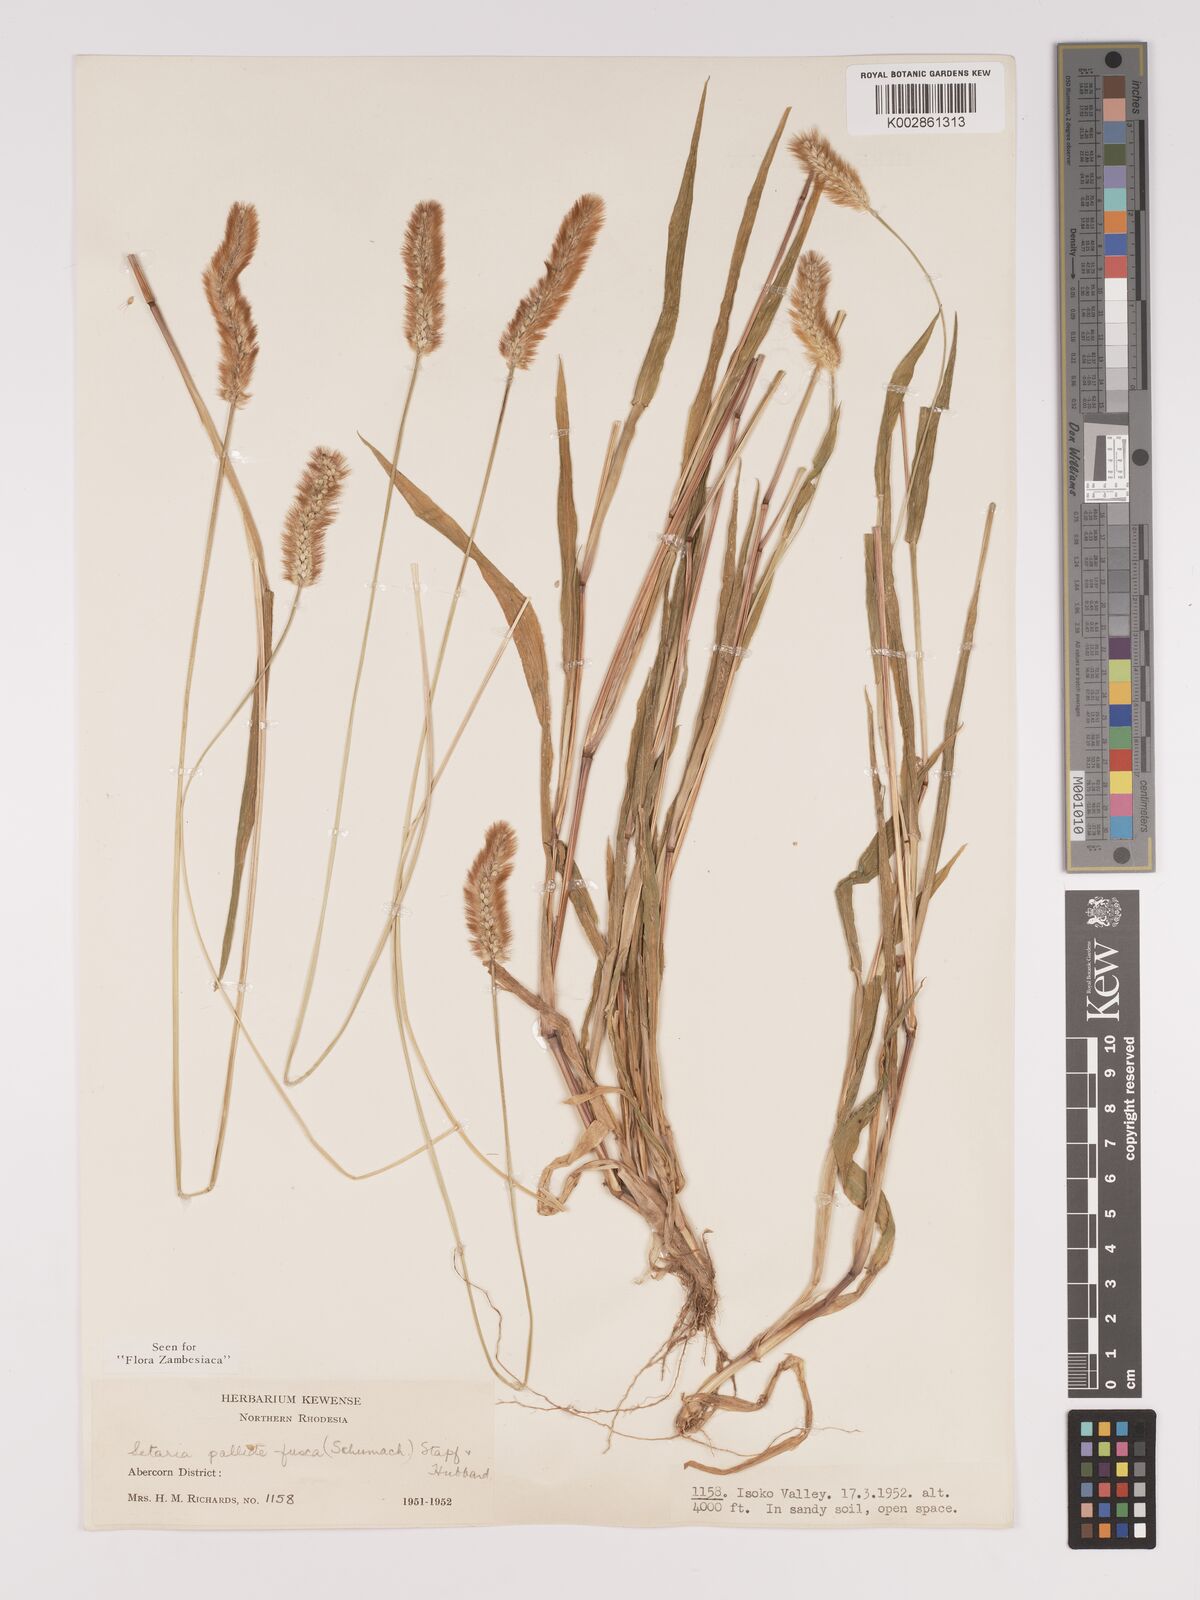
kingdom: Plantae
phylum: Tracheophyta
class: Liliopsida
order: Poales
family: Poaceae
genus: Setaria
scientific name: Setaria pumila
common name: Yellow bristle-grass
